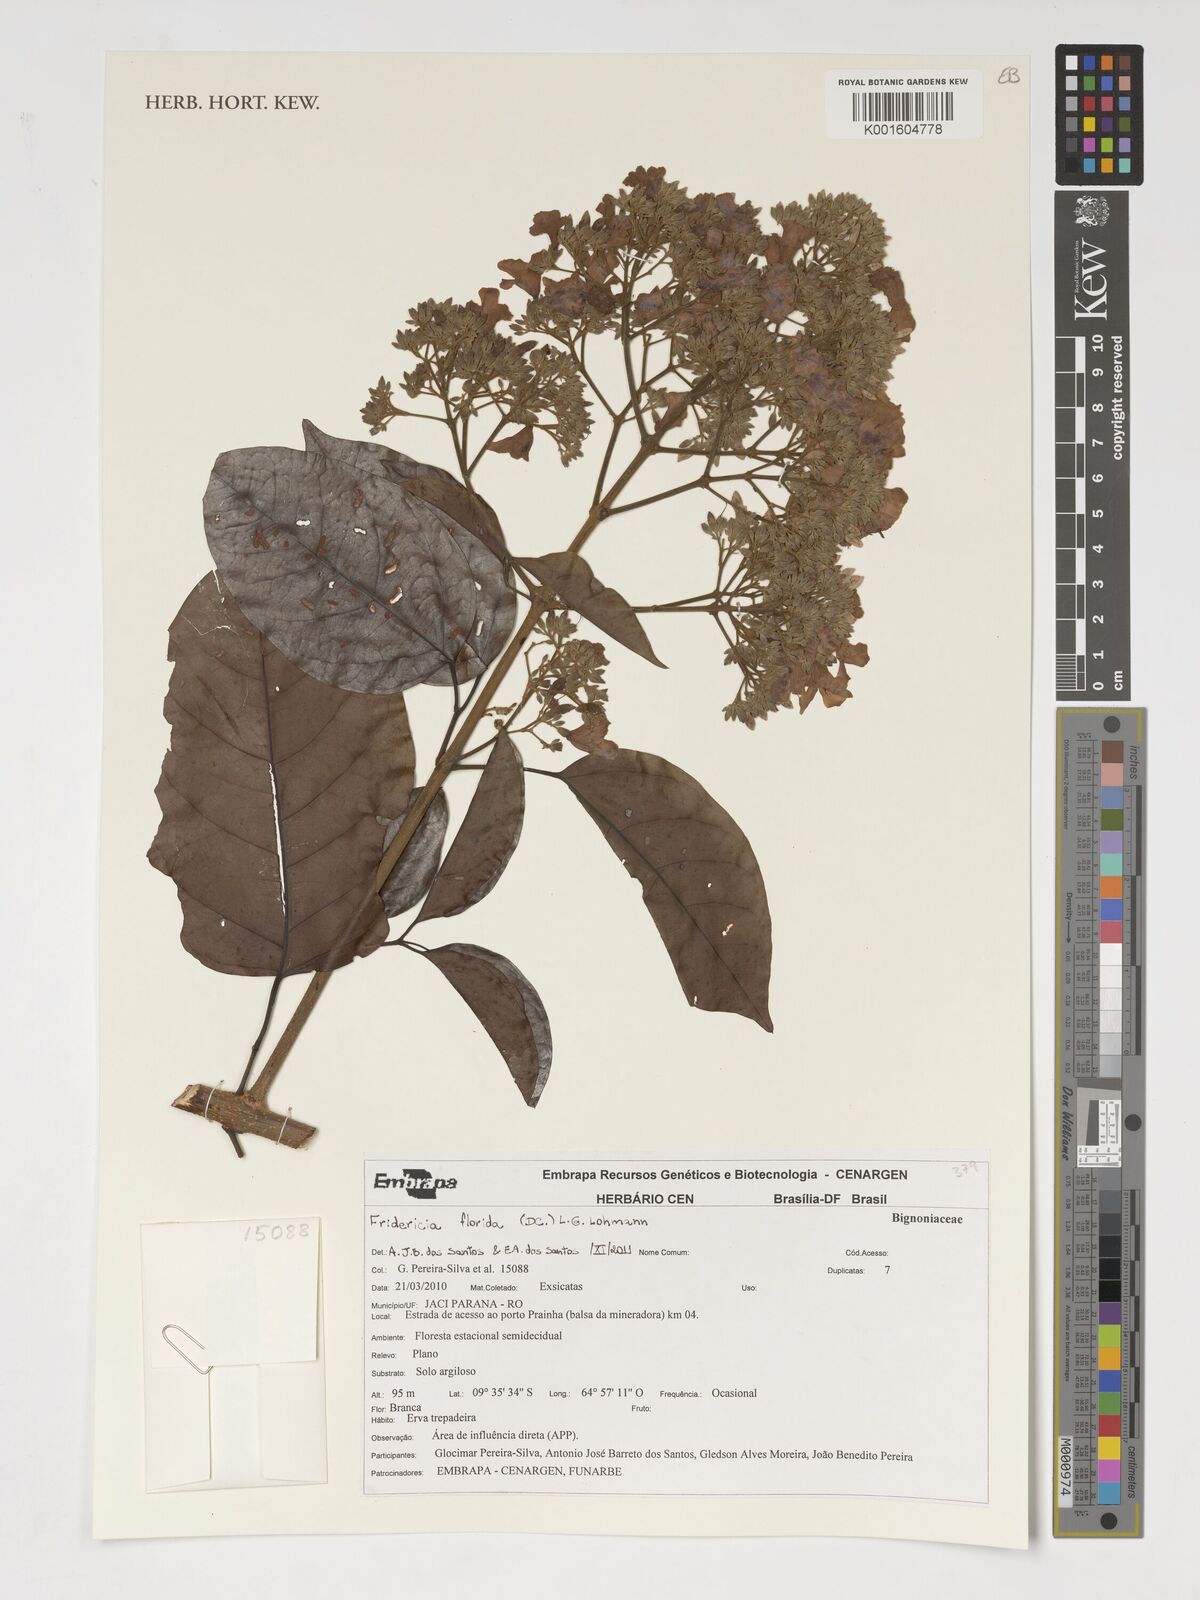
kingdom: Plantae
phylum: Tracheophyta
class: Magnoliopsida
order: Lamiales
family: Bignoniaceae
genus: Fridericia
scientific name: Fridericia florida
